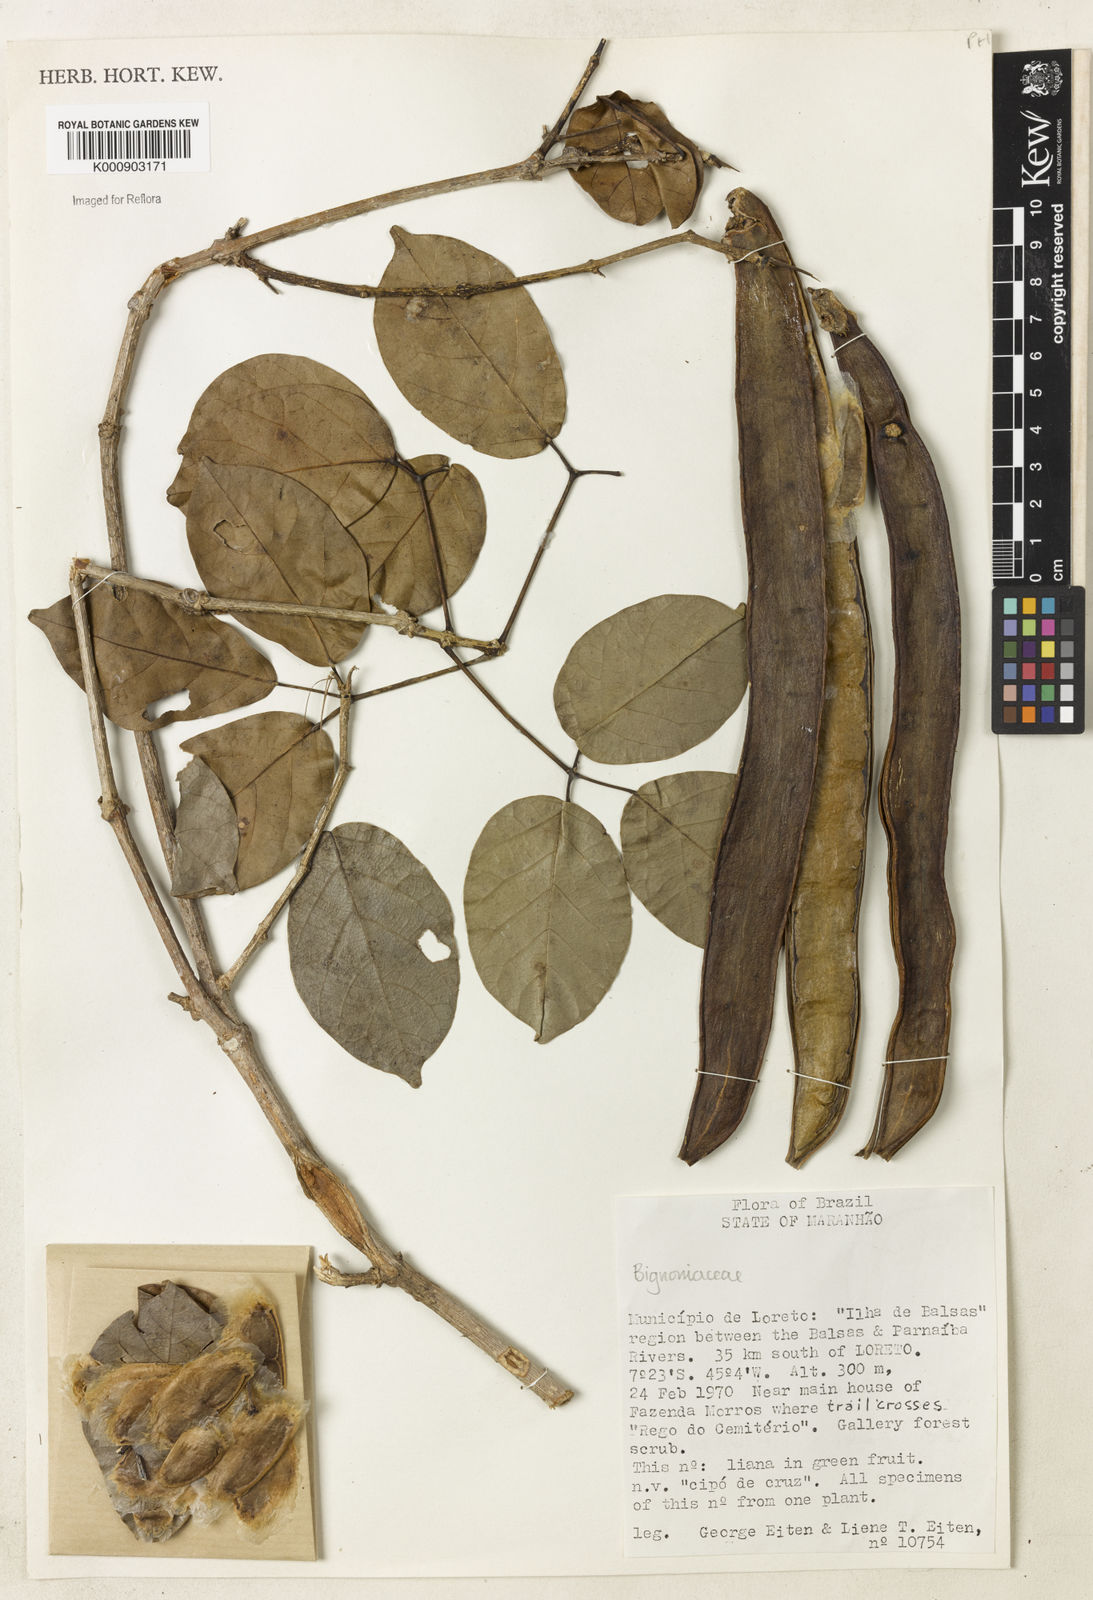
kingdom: Plantae
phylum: Tracheophyta
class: Magnoliopsida
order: Lamiales
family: Bignoniaceae
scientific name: Bignoniaceae
